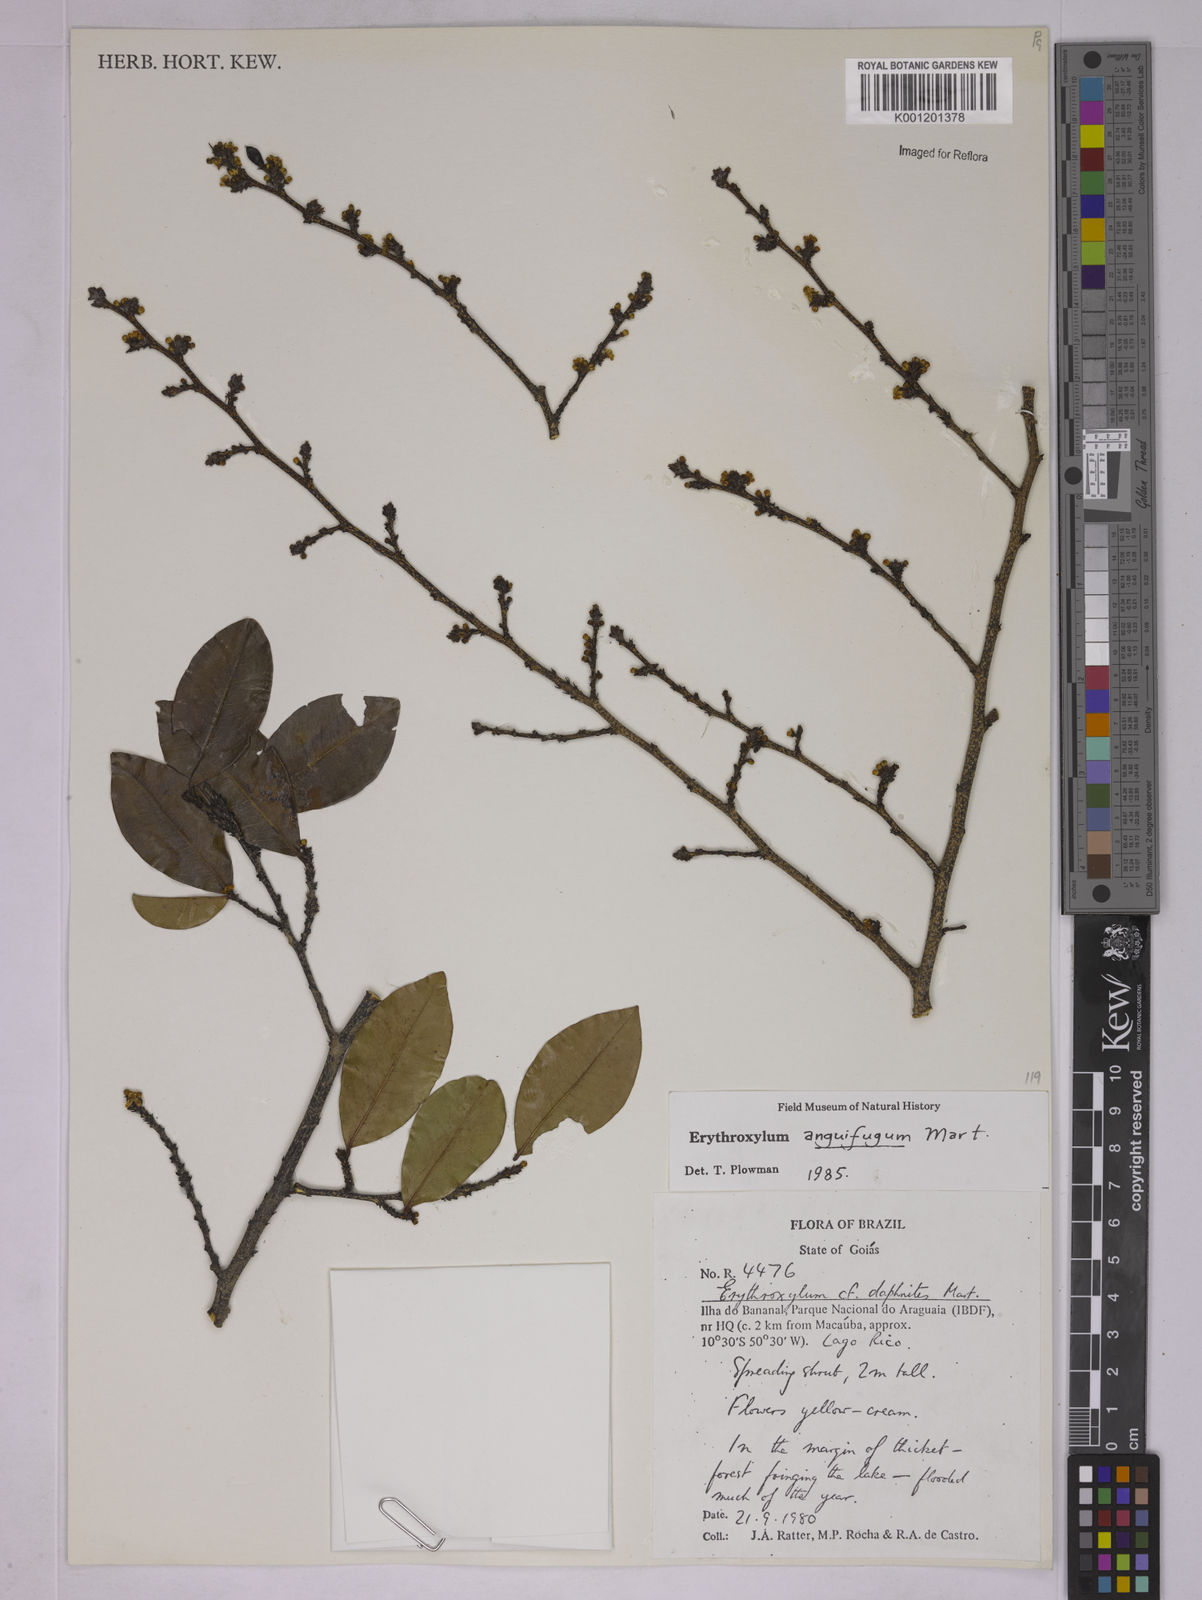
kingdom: Plantae
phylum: Tracheophyta
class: Magnoliopsida
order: Malpighiales
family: Erythroxylaceae
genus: Erythroxylum
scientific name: Erythroxylum anguifugum
